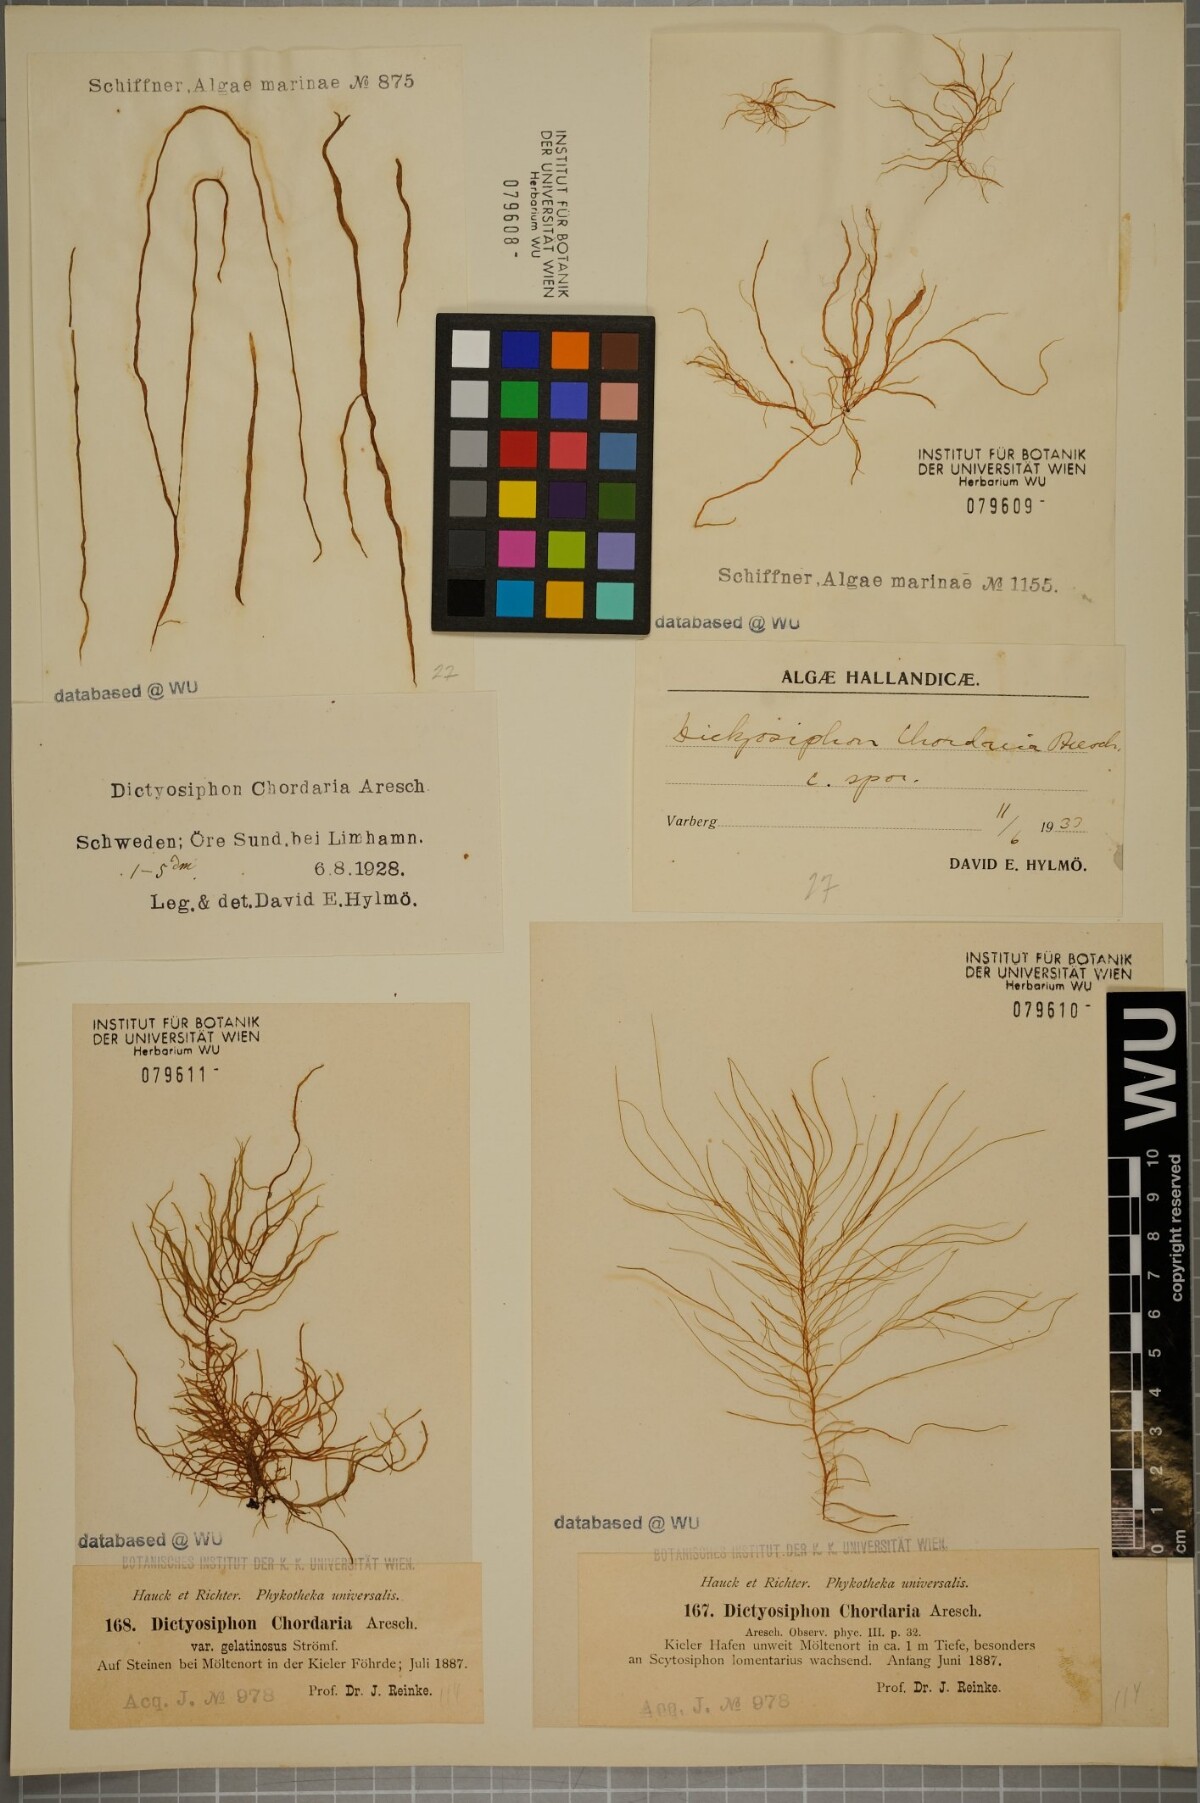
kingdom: Chromista
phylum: Ochrophyta
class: Phaeophyceae
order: Ectocarpales
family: Chordariaceae
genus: Dictyosiphon
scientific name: Dictyosiphon chordaria
